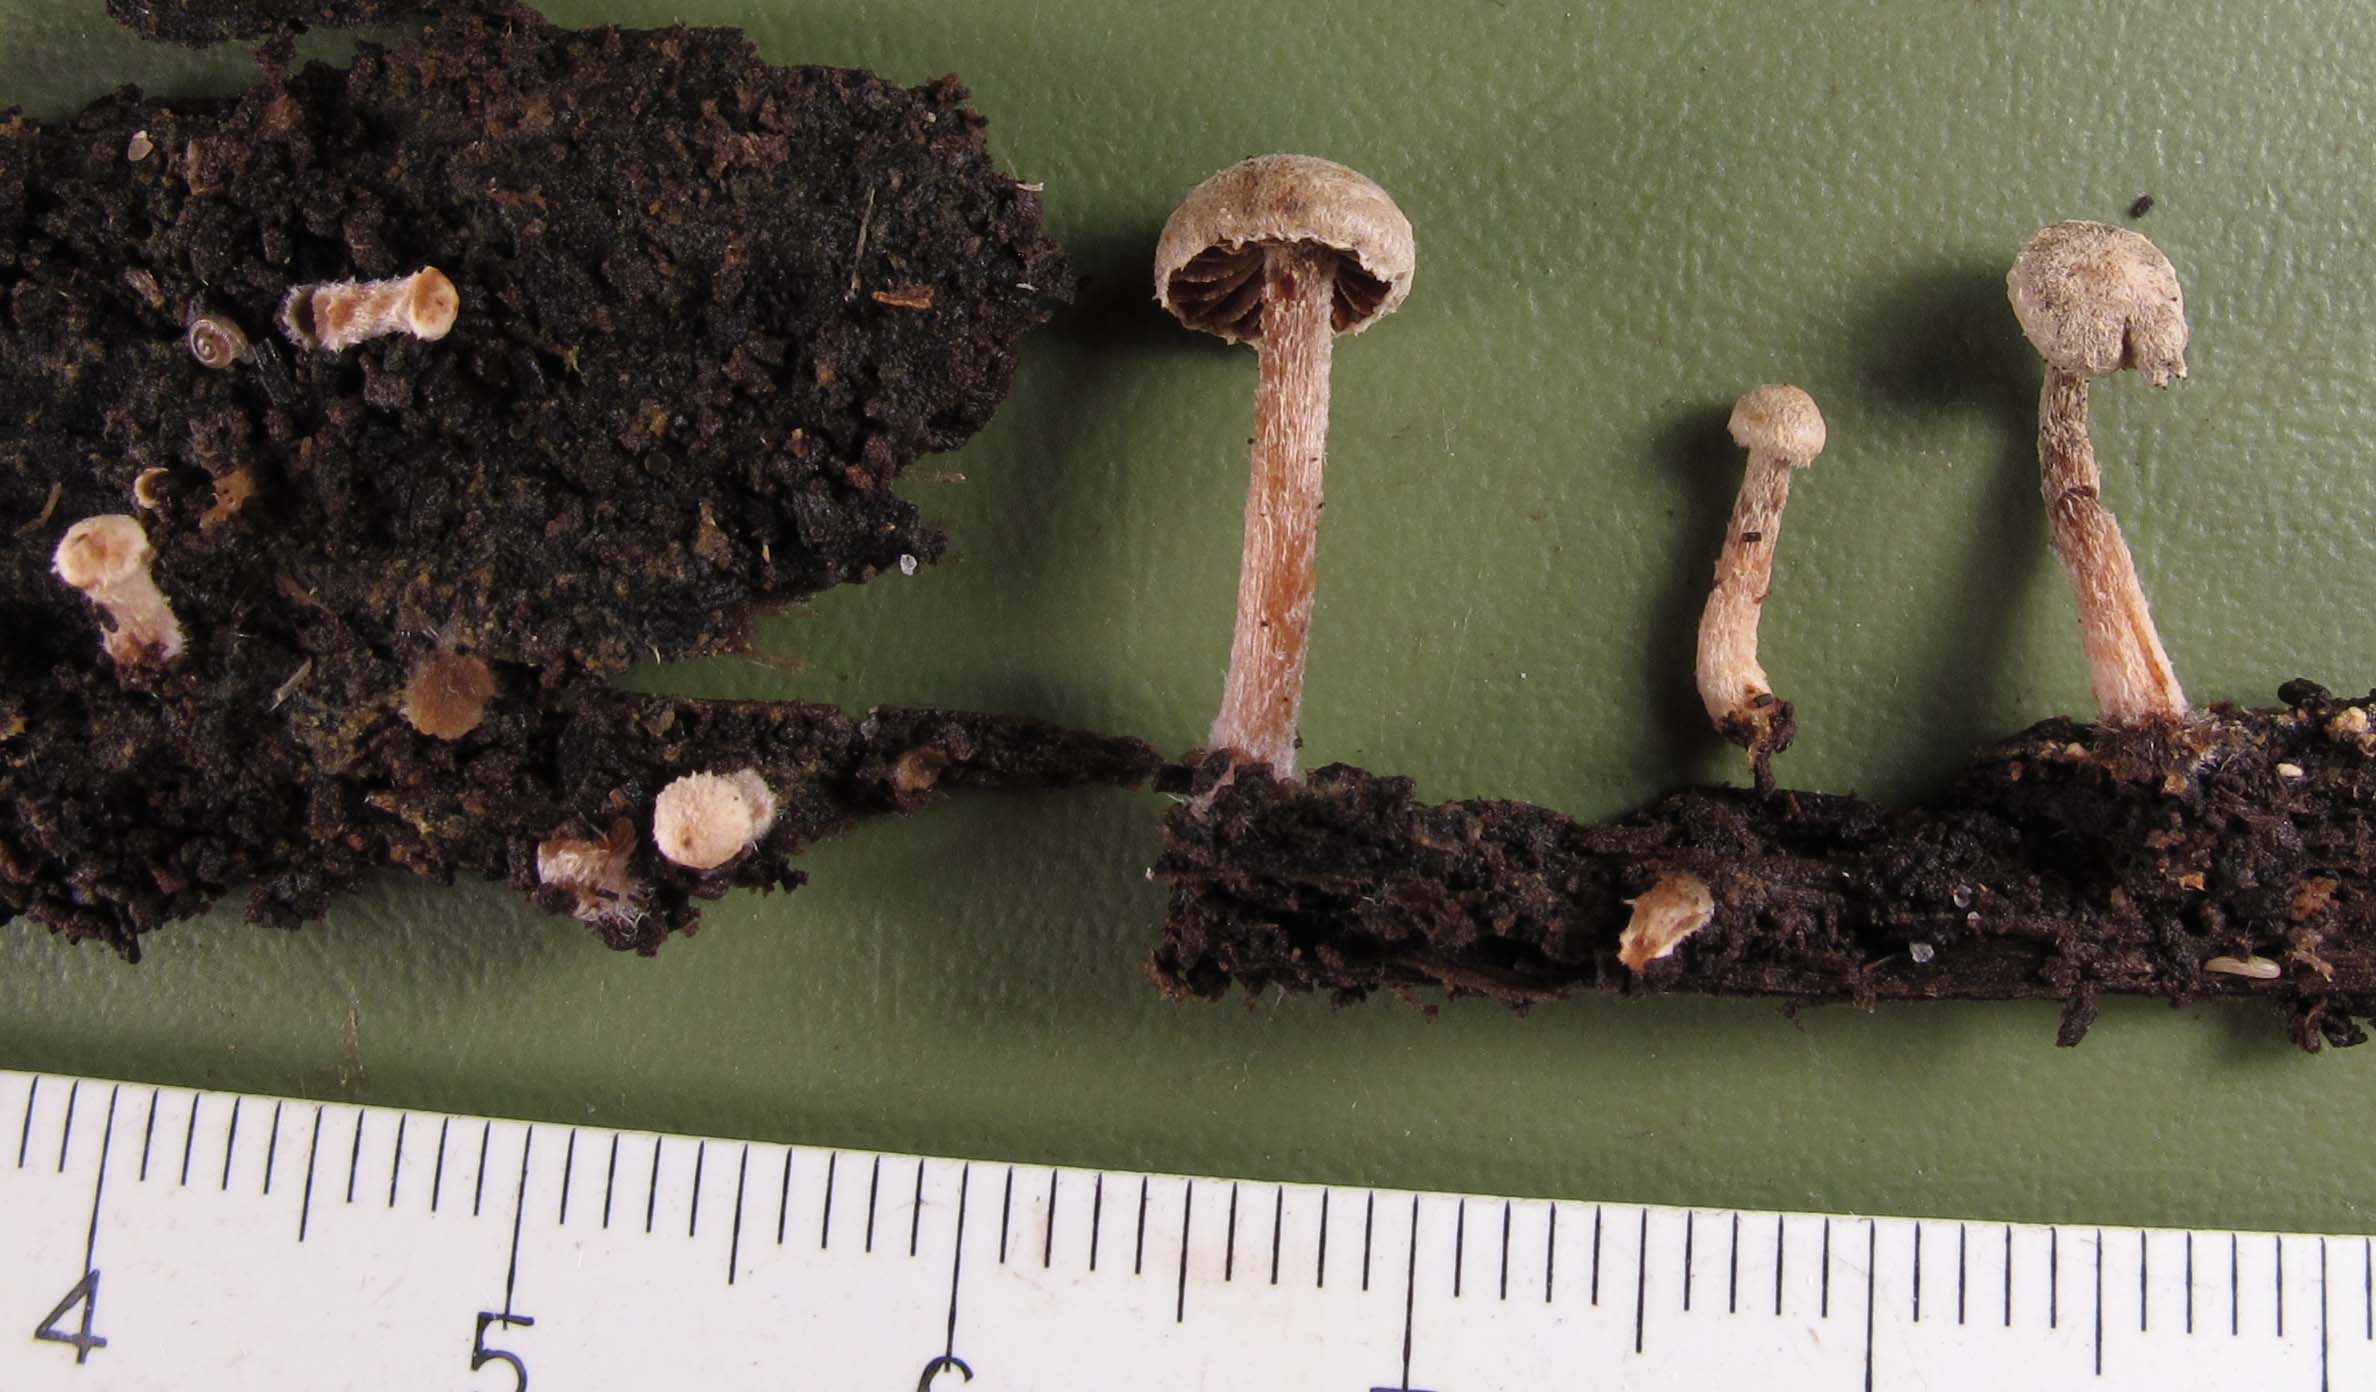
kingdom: Fungi
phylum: Basidiomycota
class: Agaricomycetes
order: Agaricales
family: Tubariaceae
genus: Tubaria
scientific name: Tubaria conspersa
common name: bleg fnughat
